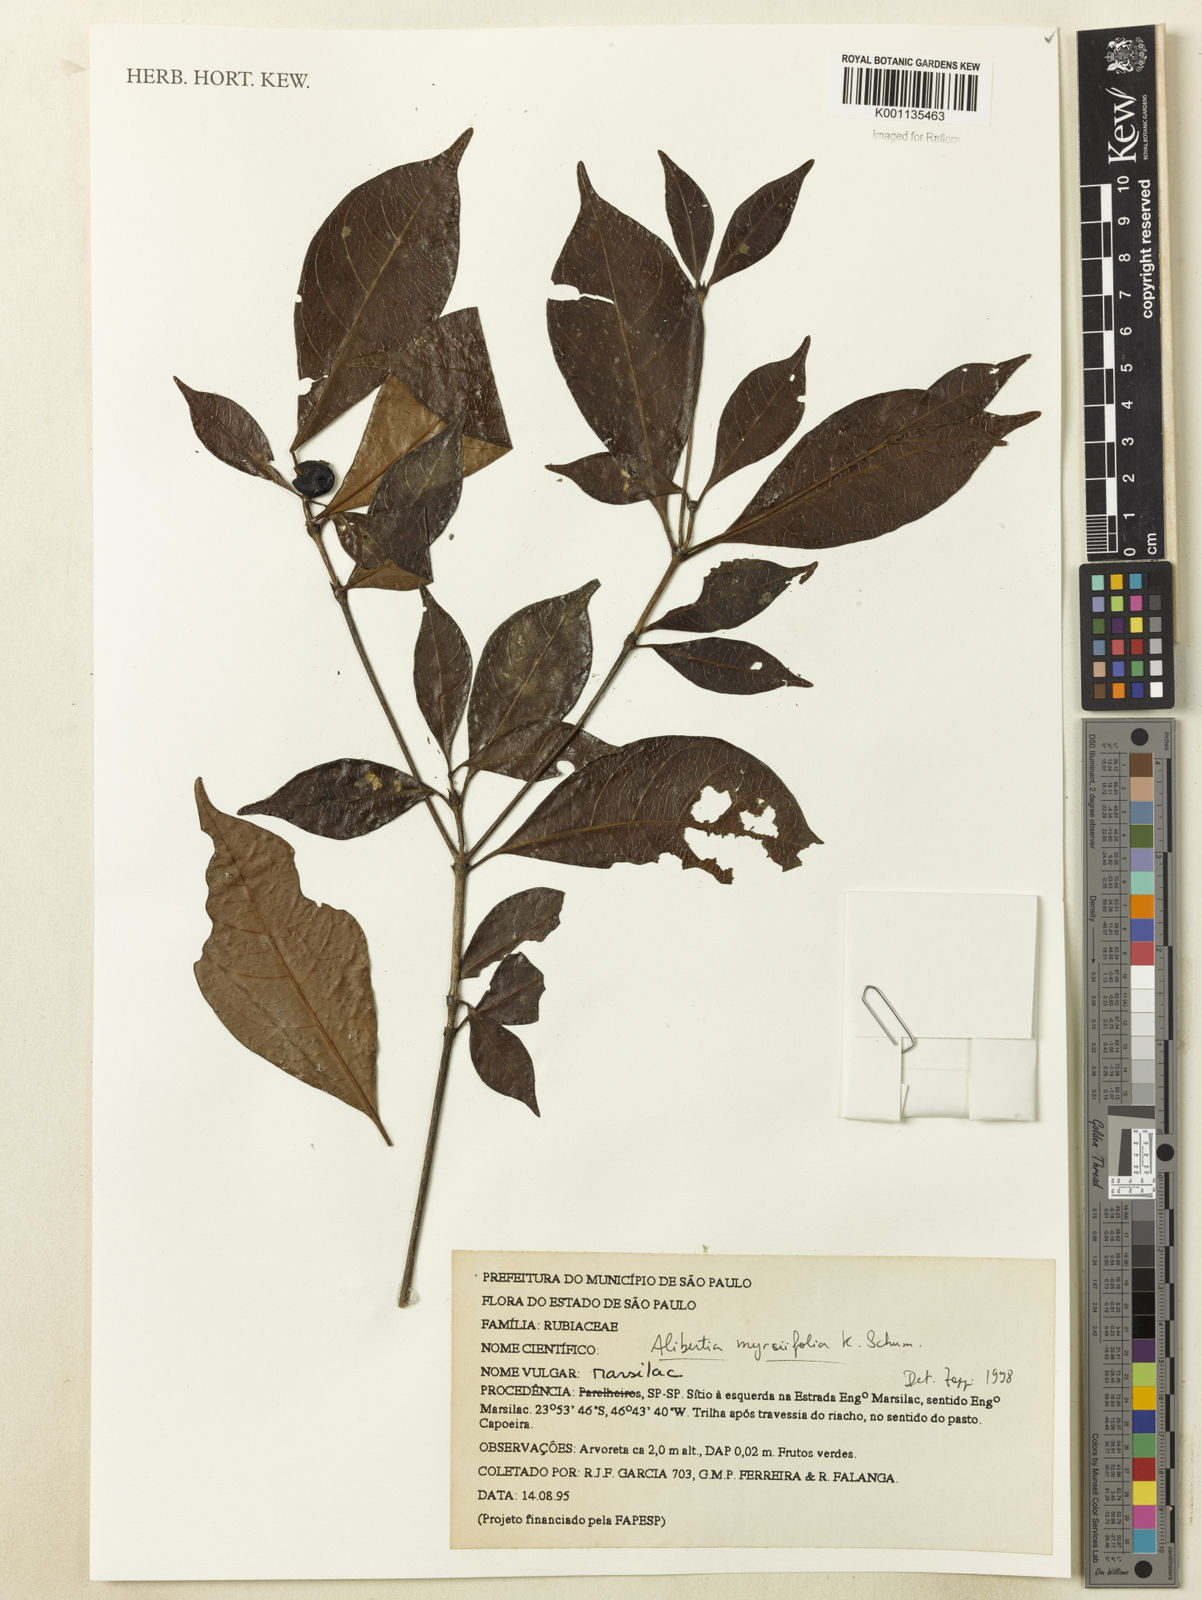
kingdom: Plantae
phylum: Tracheophyta
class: Magnoliopsida
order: Gentianales
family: Rubiaceae
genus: Cordiera
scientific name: Cordiera myrciifolia
